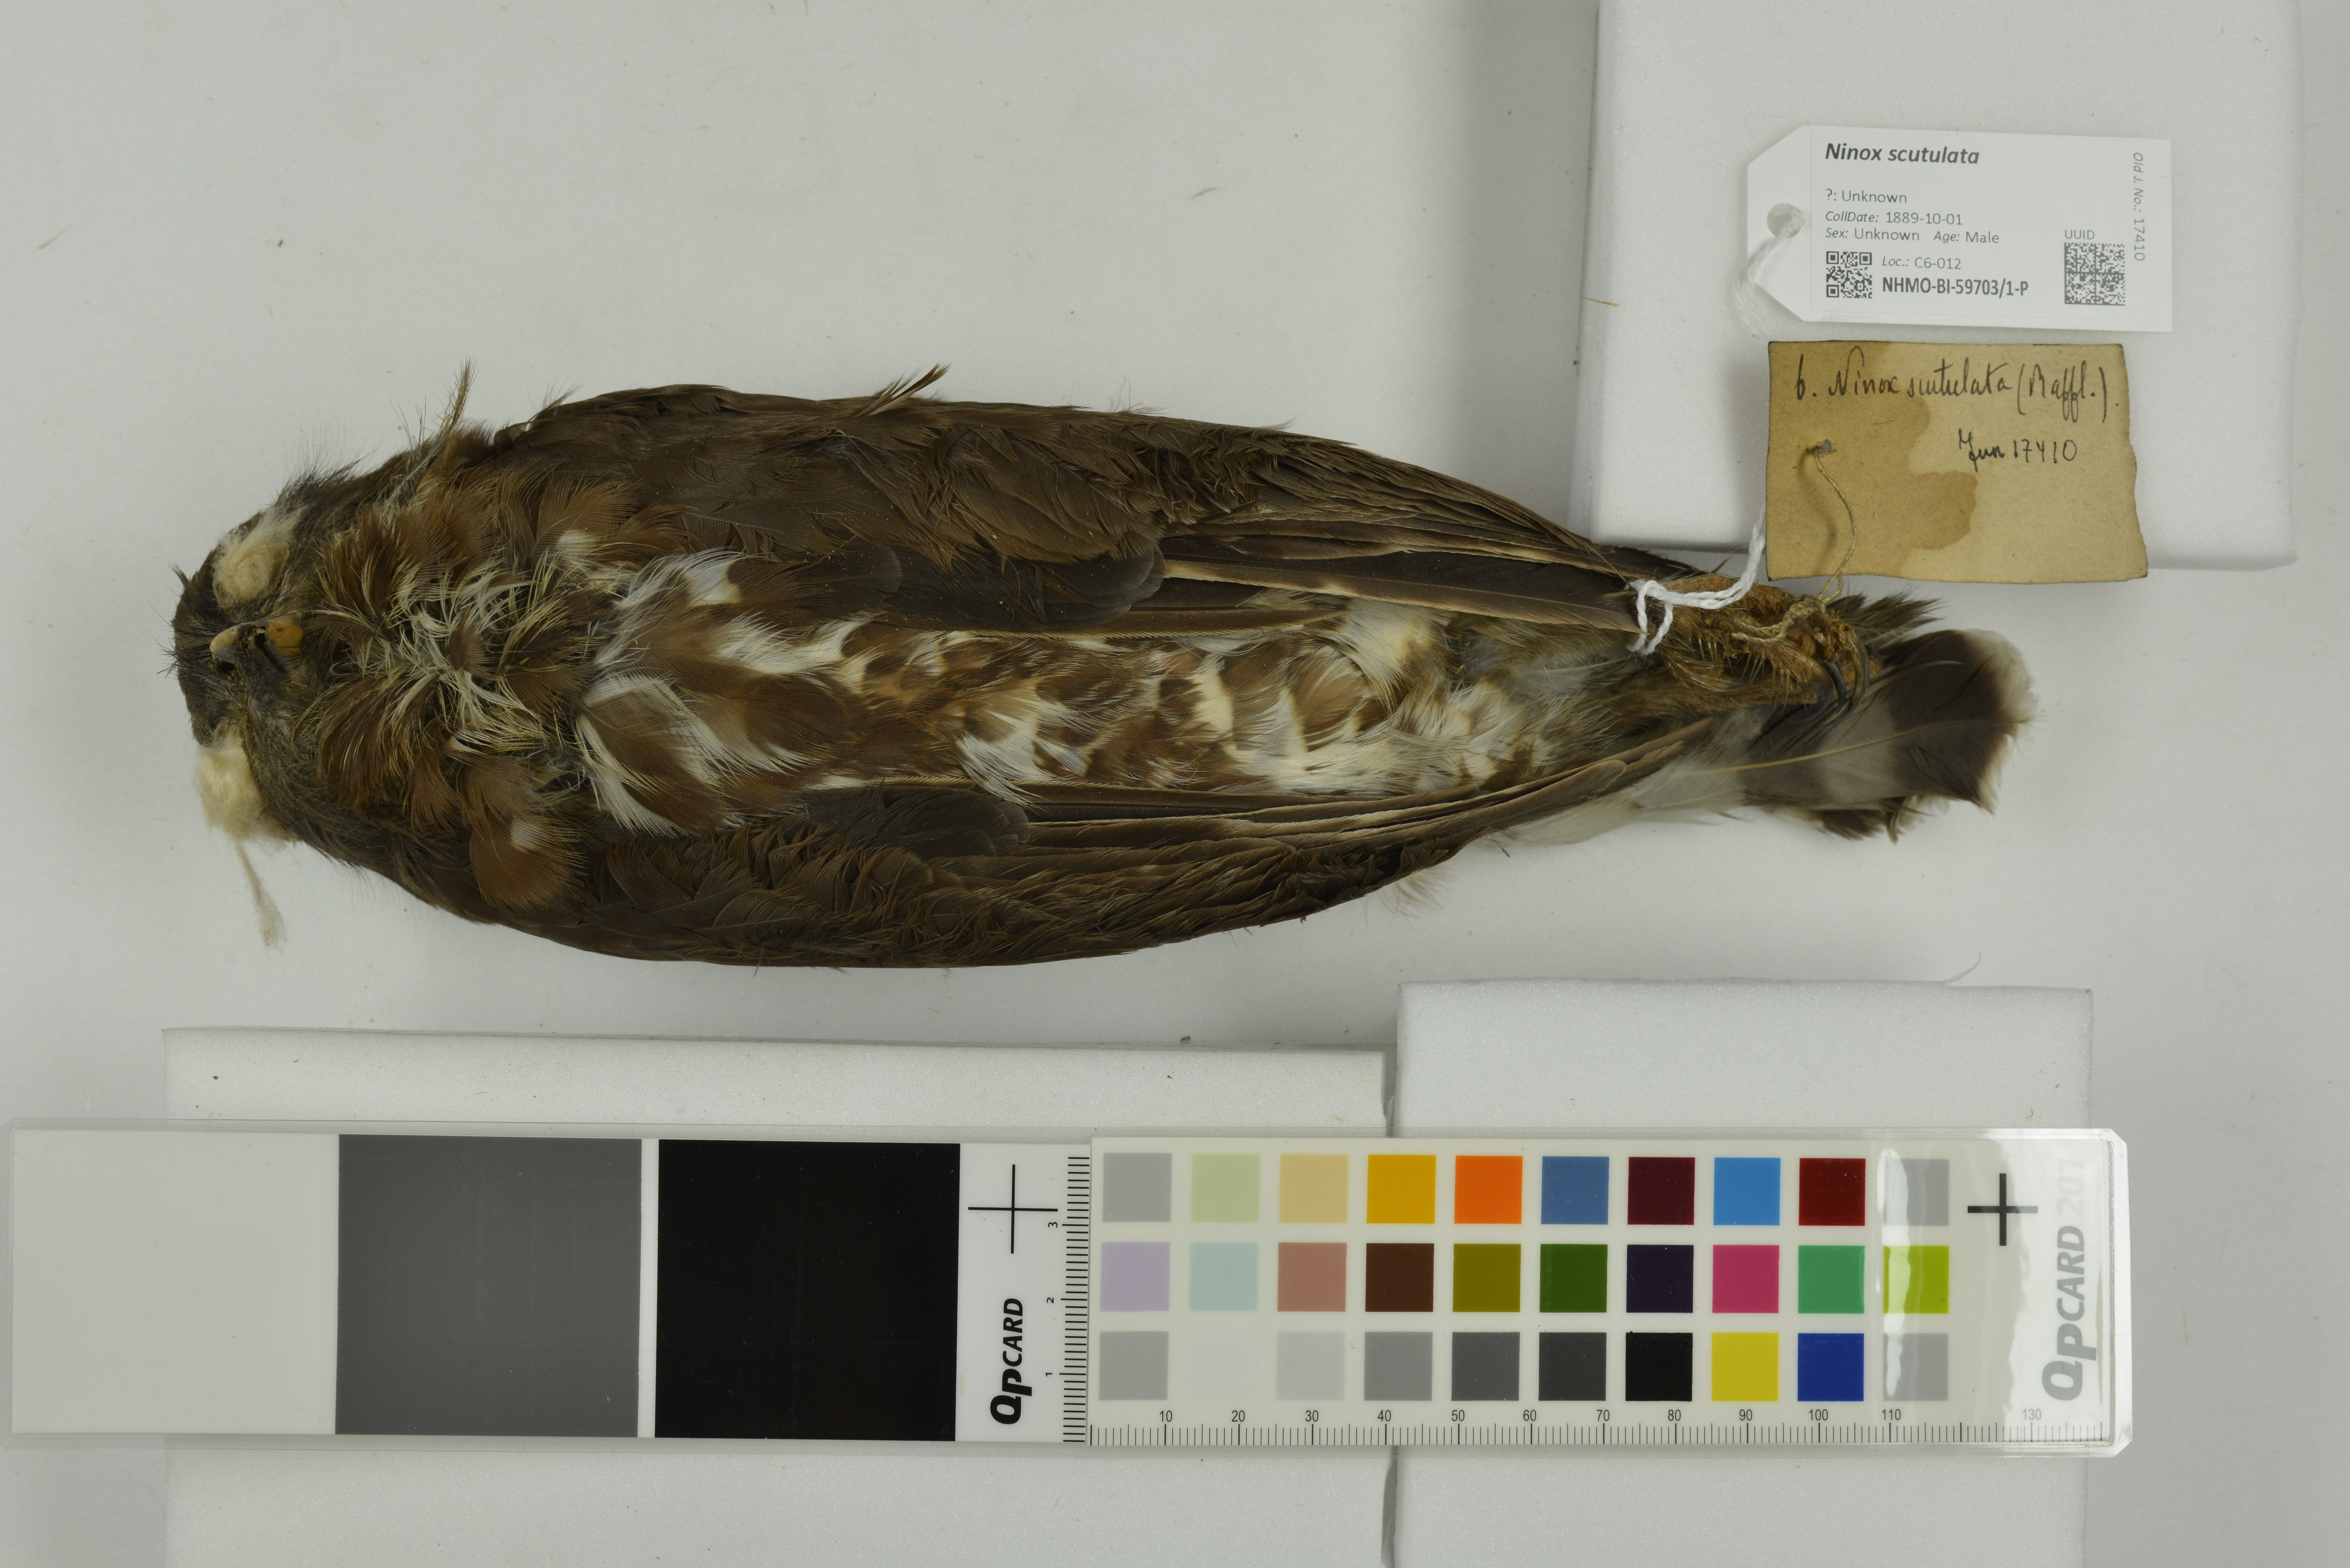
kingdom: Animalia
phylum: Chordata
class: Aves
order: Strigiformes
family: Strigidae
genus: Ninox
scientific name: Ninox scutulata
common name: Brown hawk-owl
